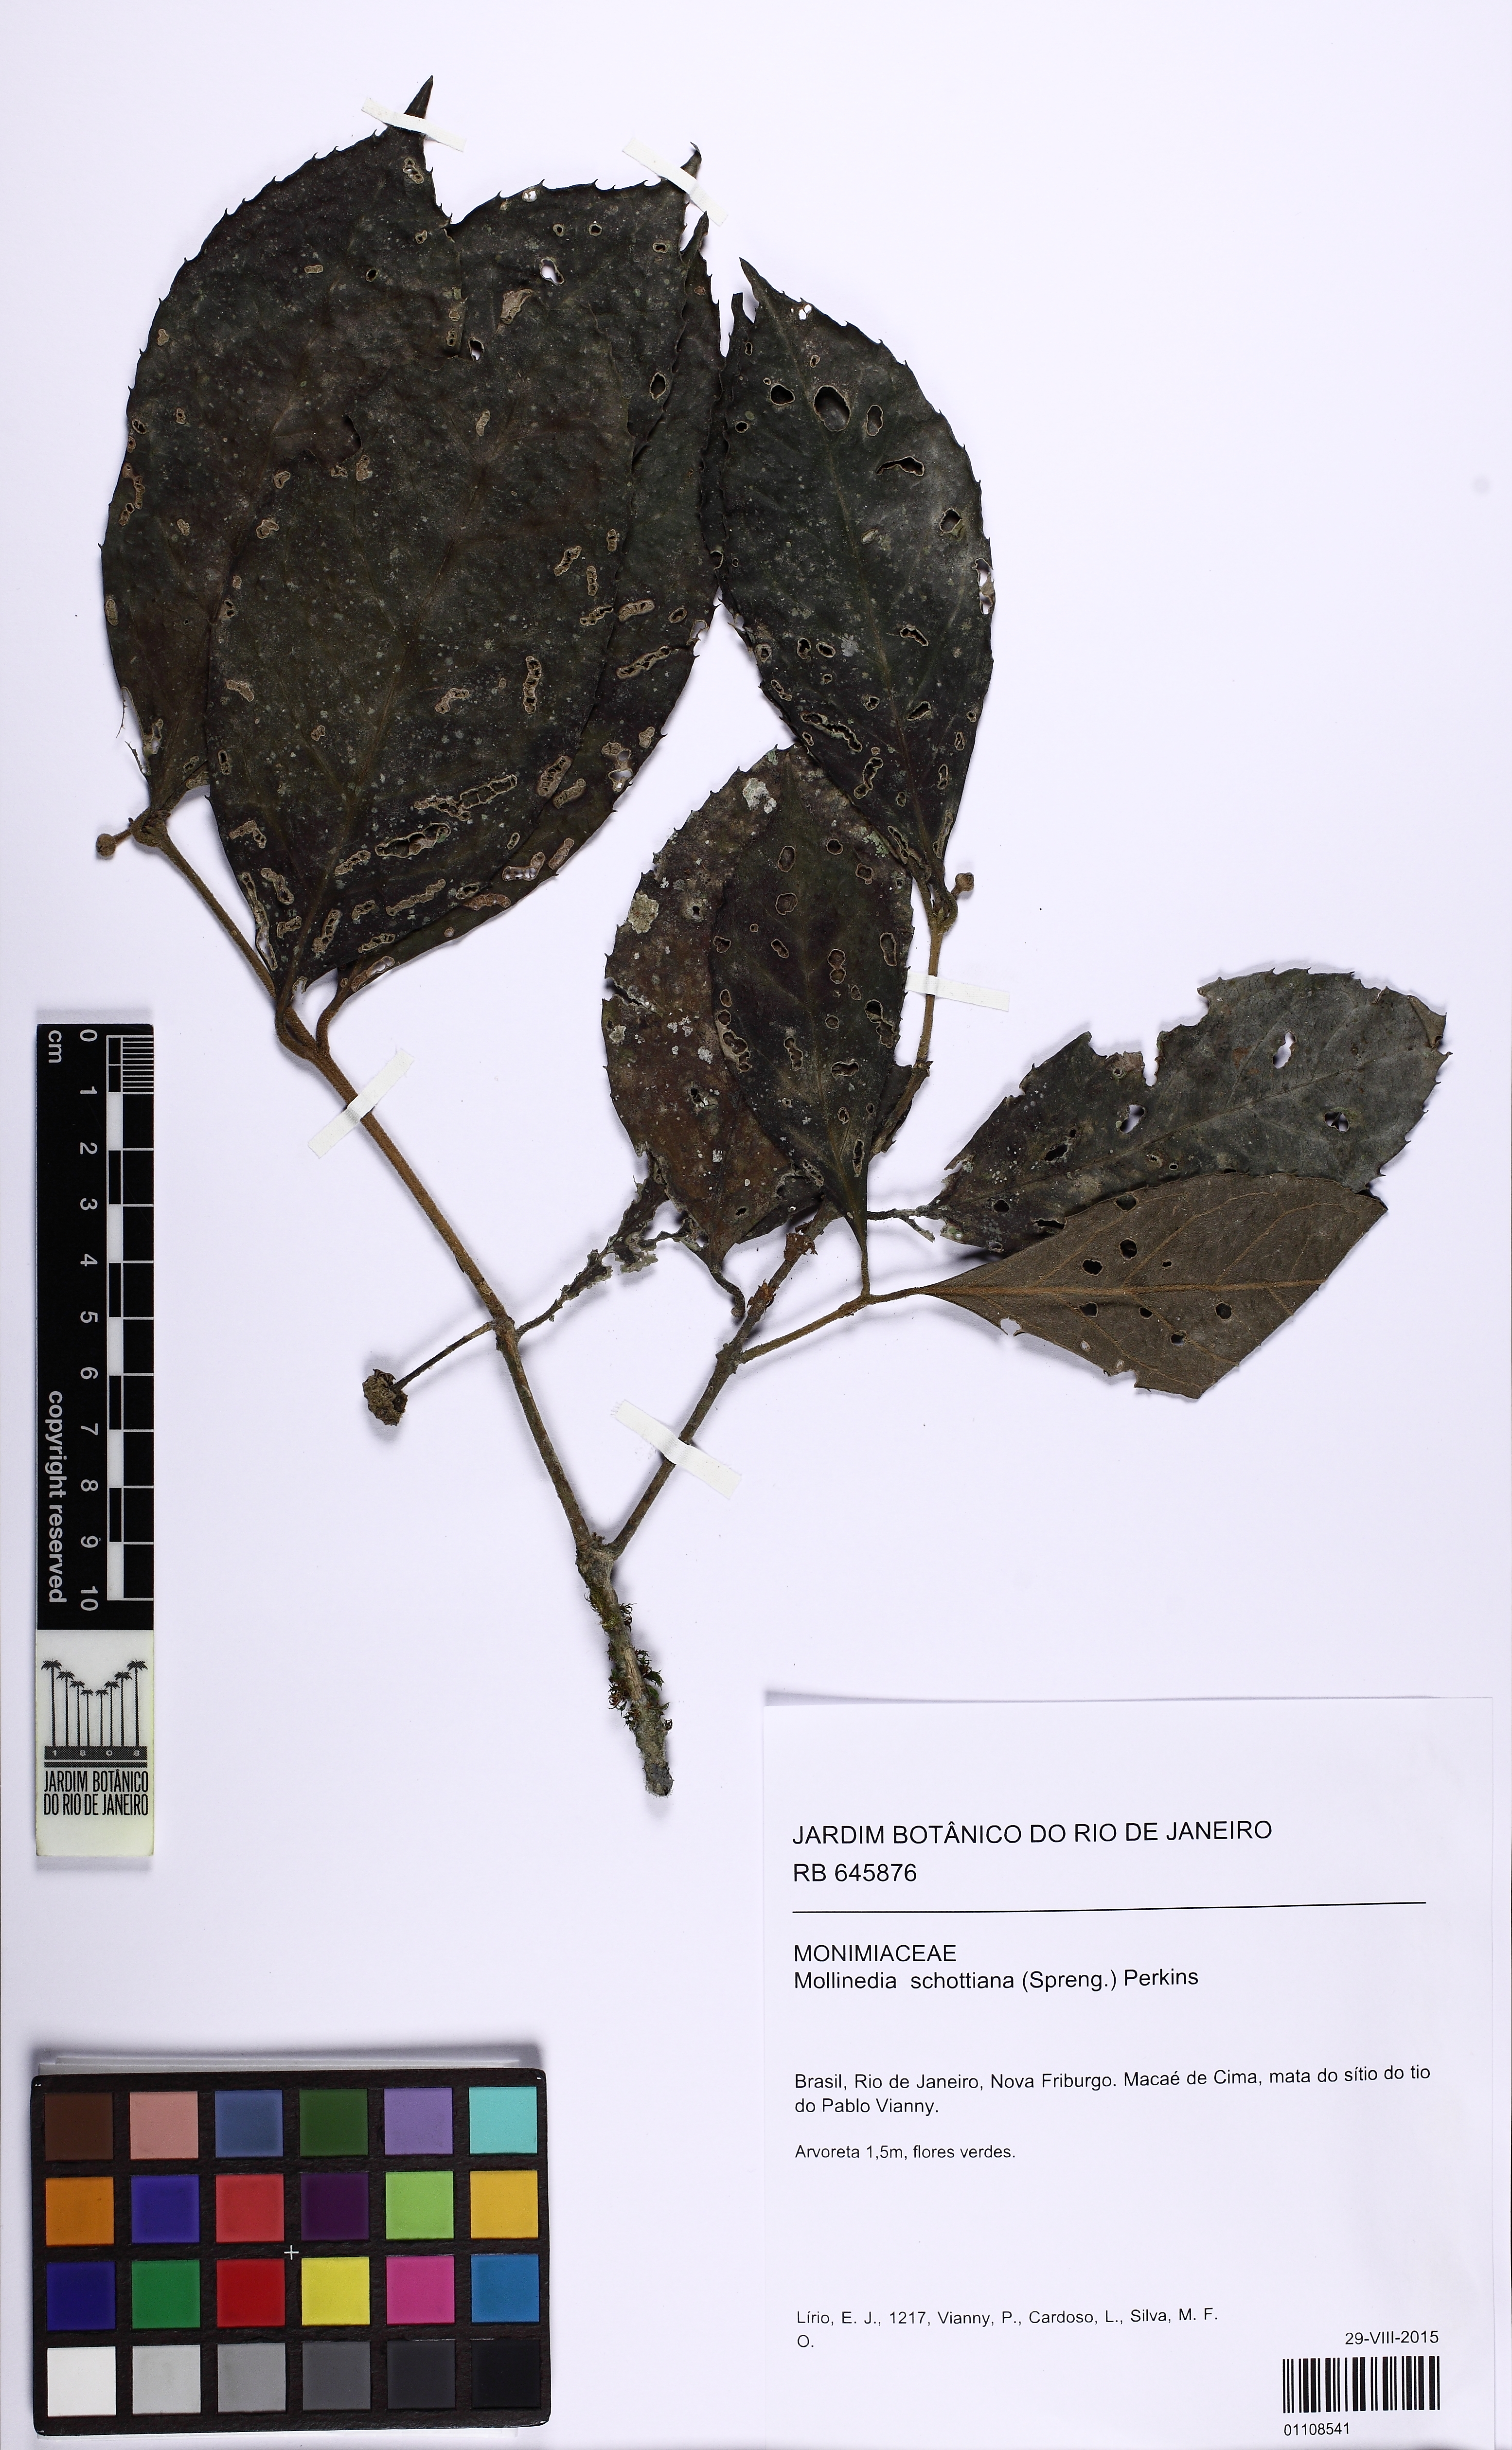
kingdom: Plantae
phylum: Tracheophyta
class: Magnoliopsida
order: Laurales
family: Monimiaceae
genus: Mollinedia
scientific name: Mollinedia umbellata
